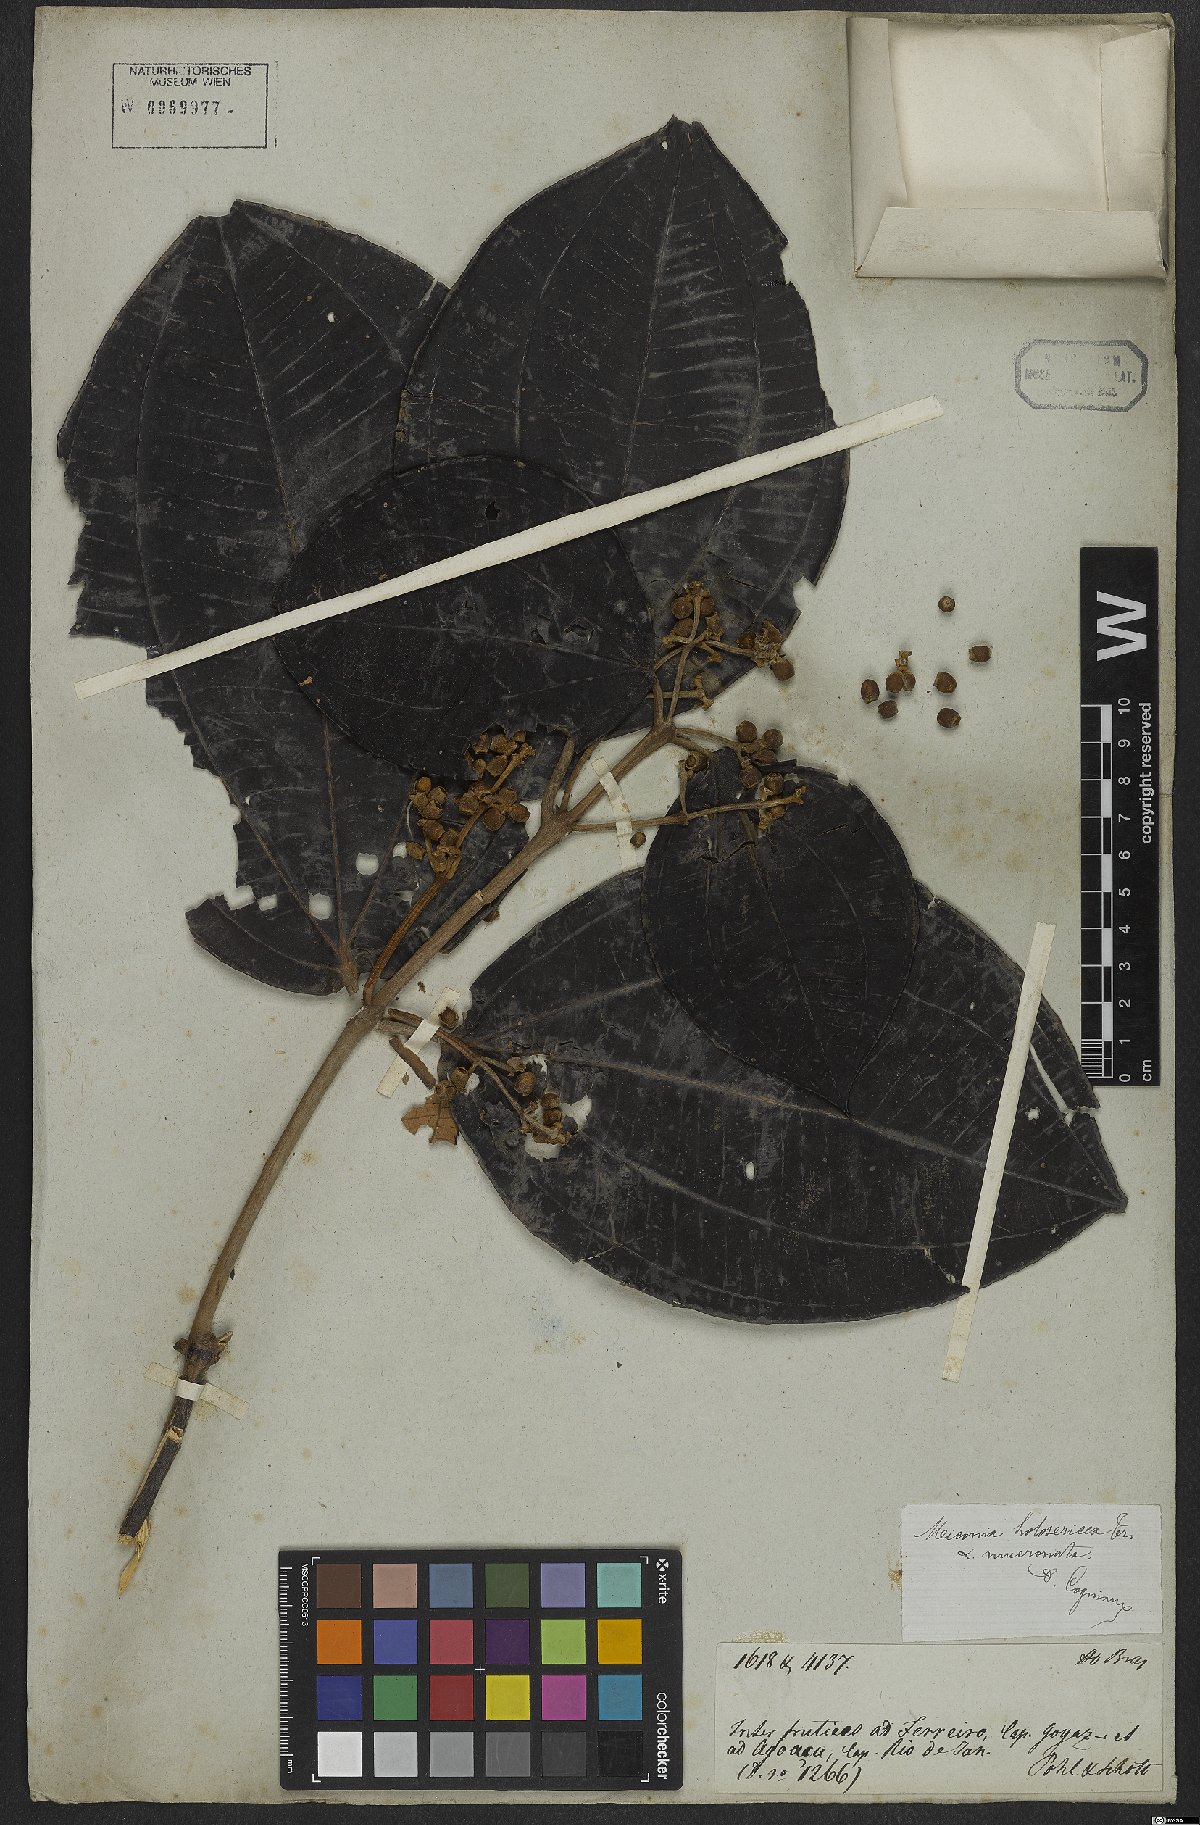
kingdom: Plantae
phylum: Tracheophyta
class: Magnoliopsida
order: Myrtales
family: Melastomataceae
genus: Miconia
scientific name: Miconia holosericea
